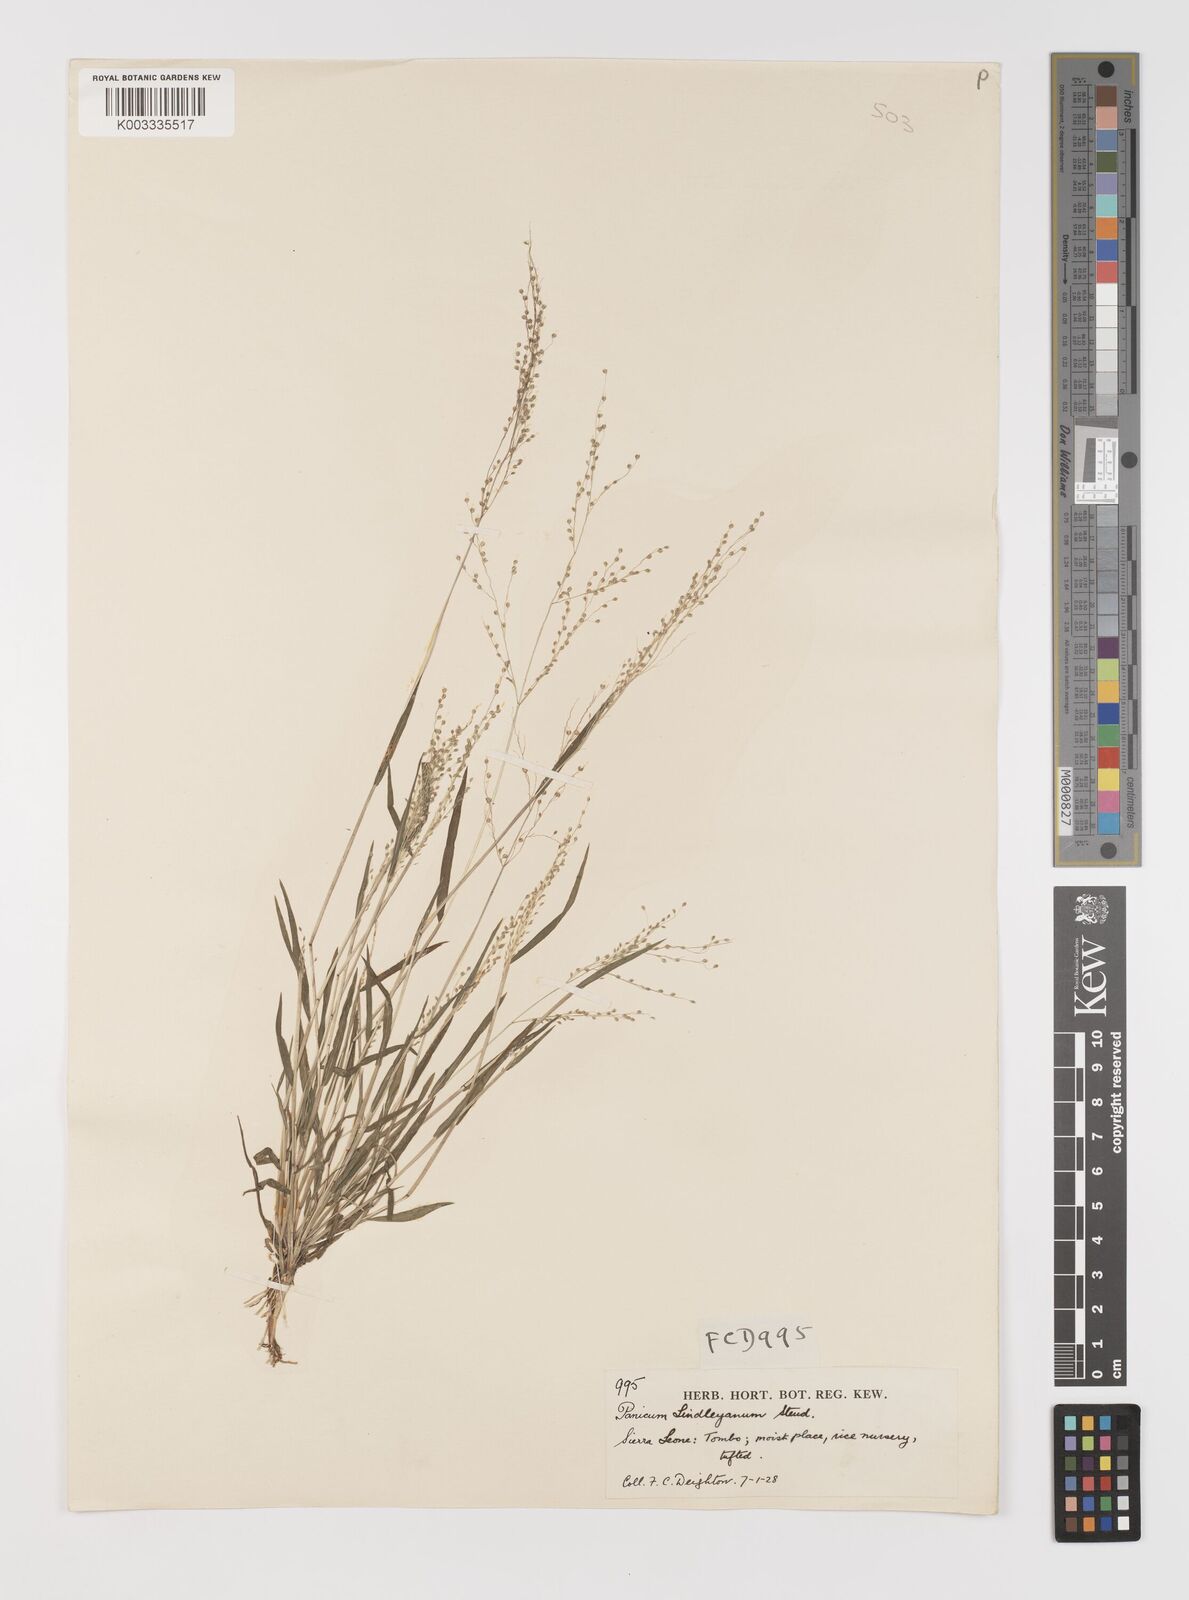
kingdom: Plantae
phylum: Tracheophyta
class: Liliopsida
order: Poales
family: Poaceae
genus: Trichanthecium
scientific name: Trichanthecium tenellum
